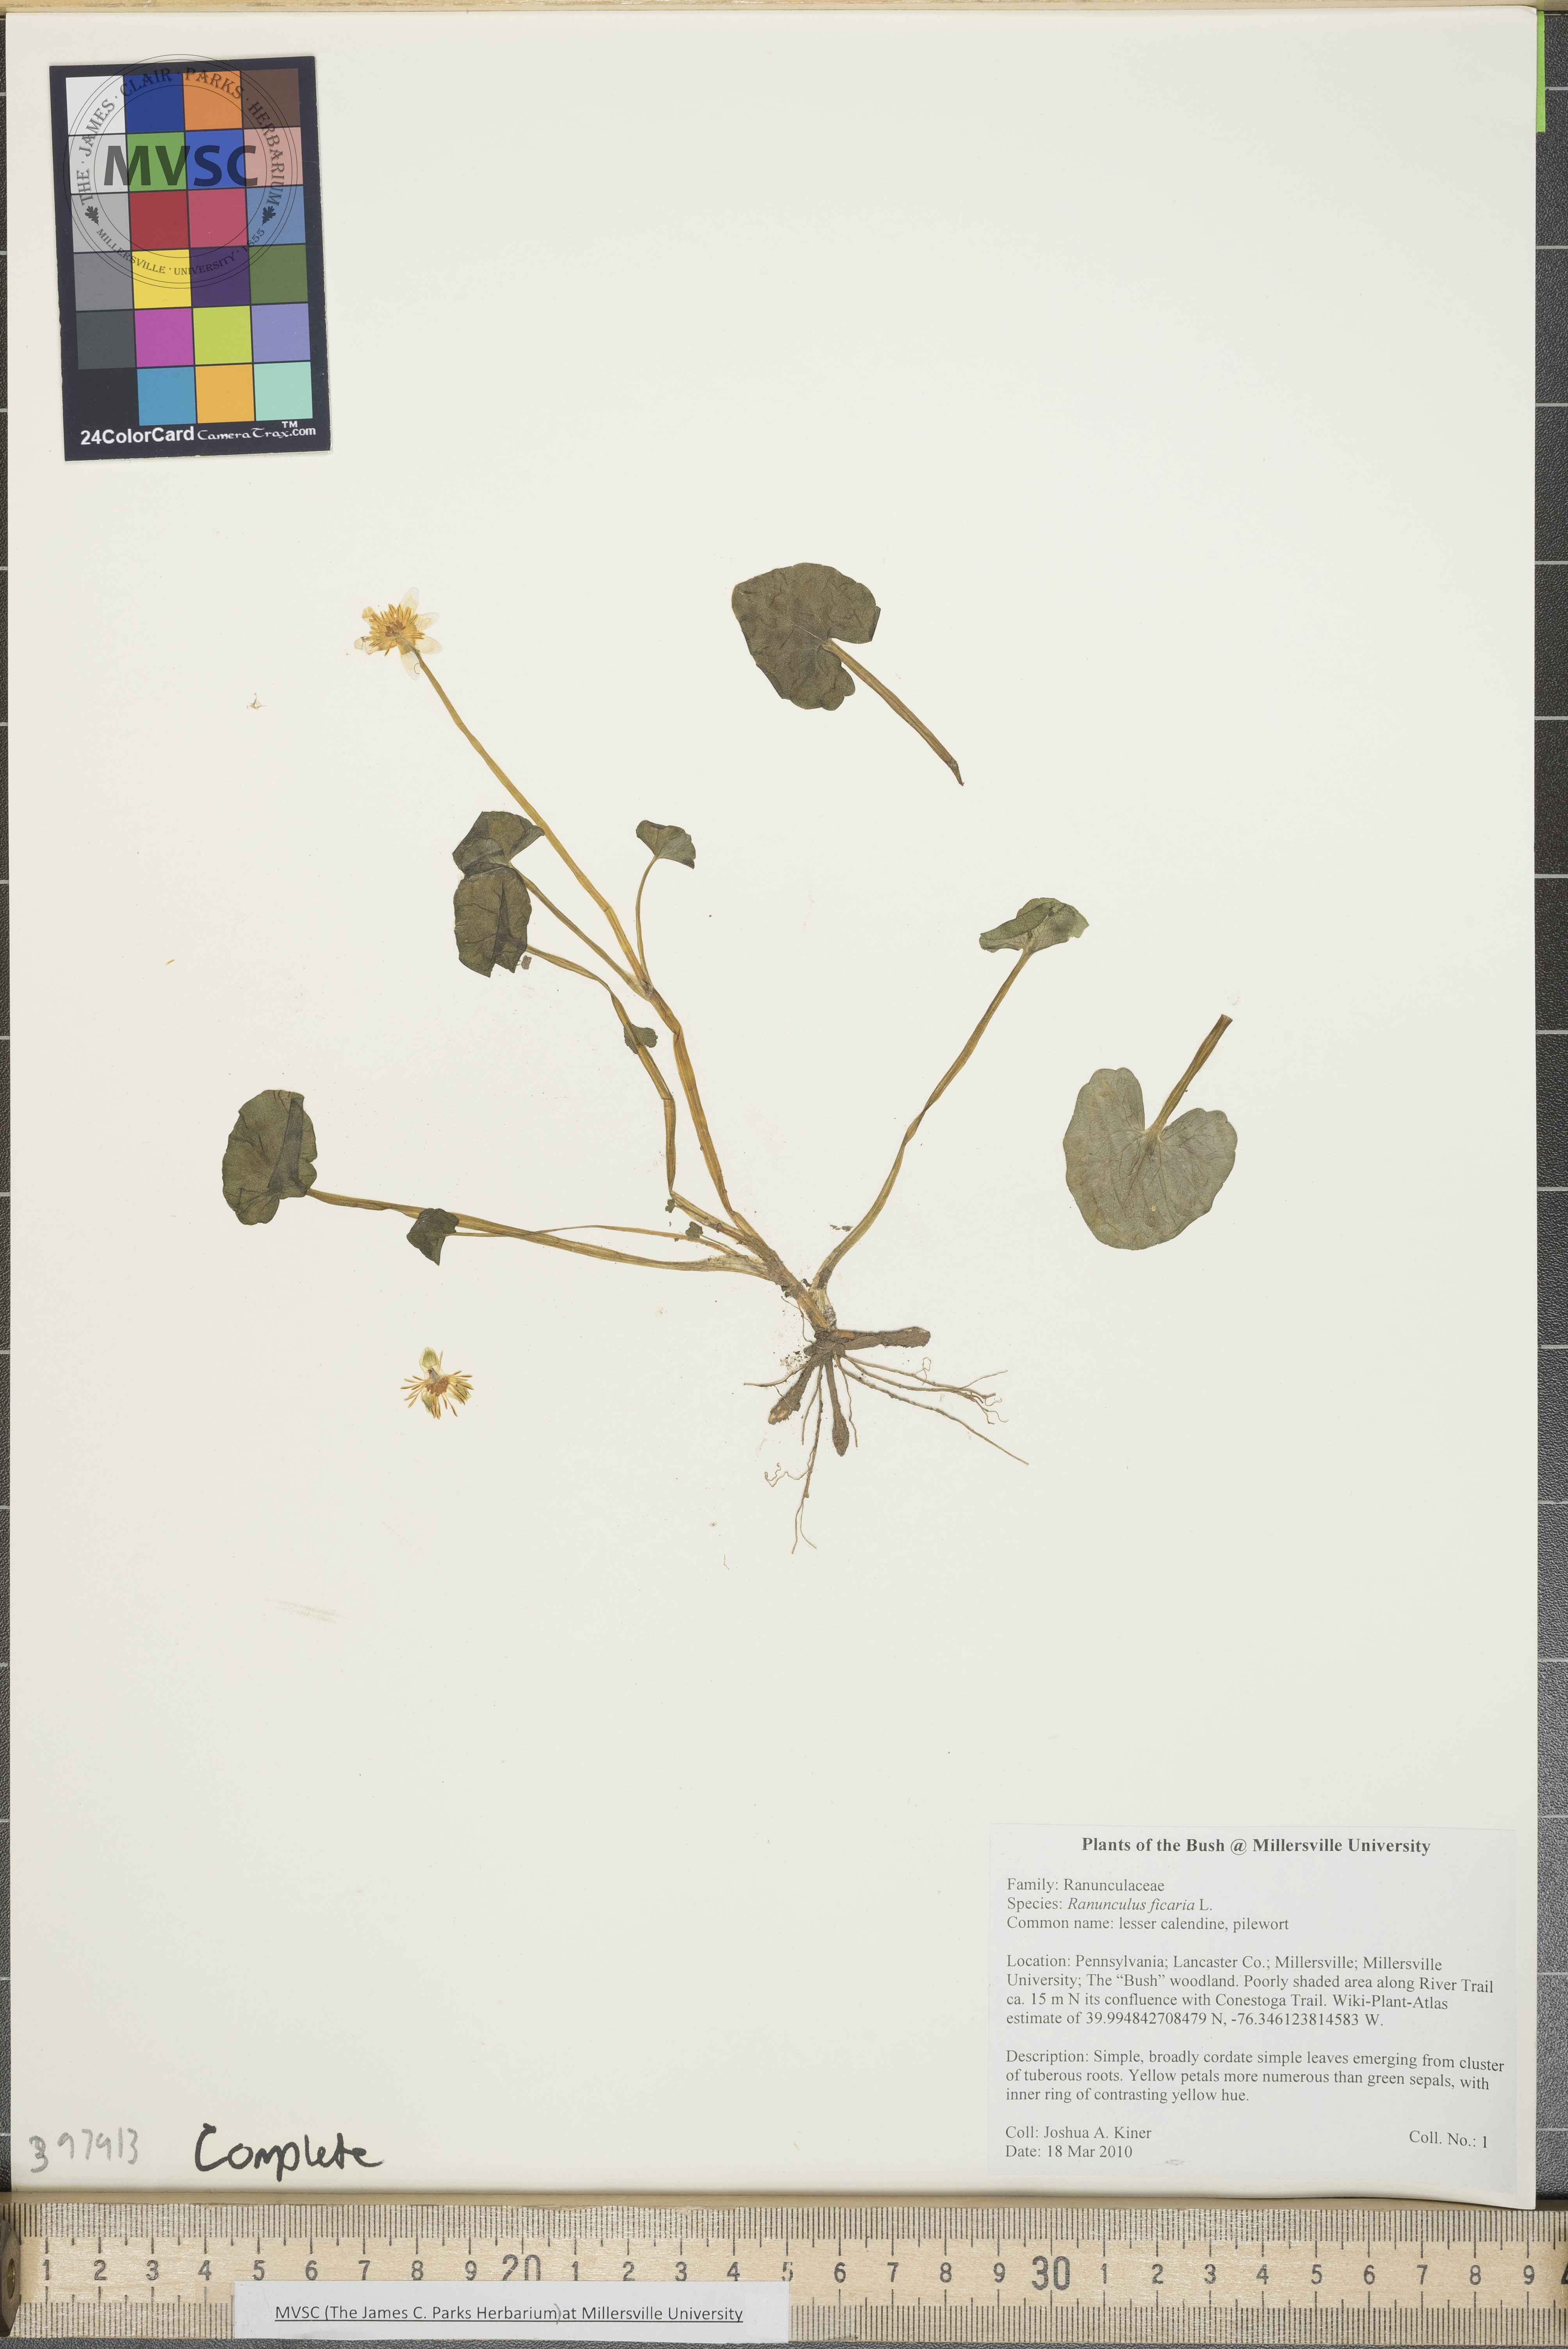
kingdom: Plantae
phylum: Tracheophyta
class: Magnoliopsida
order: Ranunculales
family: Ranunculaceae
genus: Ranunculus
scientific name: Ranunculus ficaria
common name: Lesser celandine
